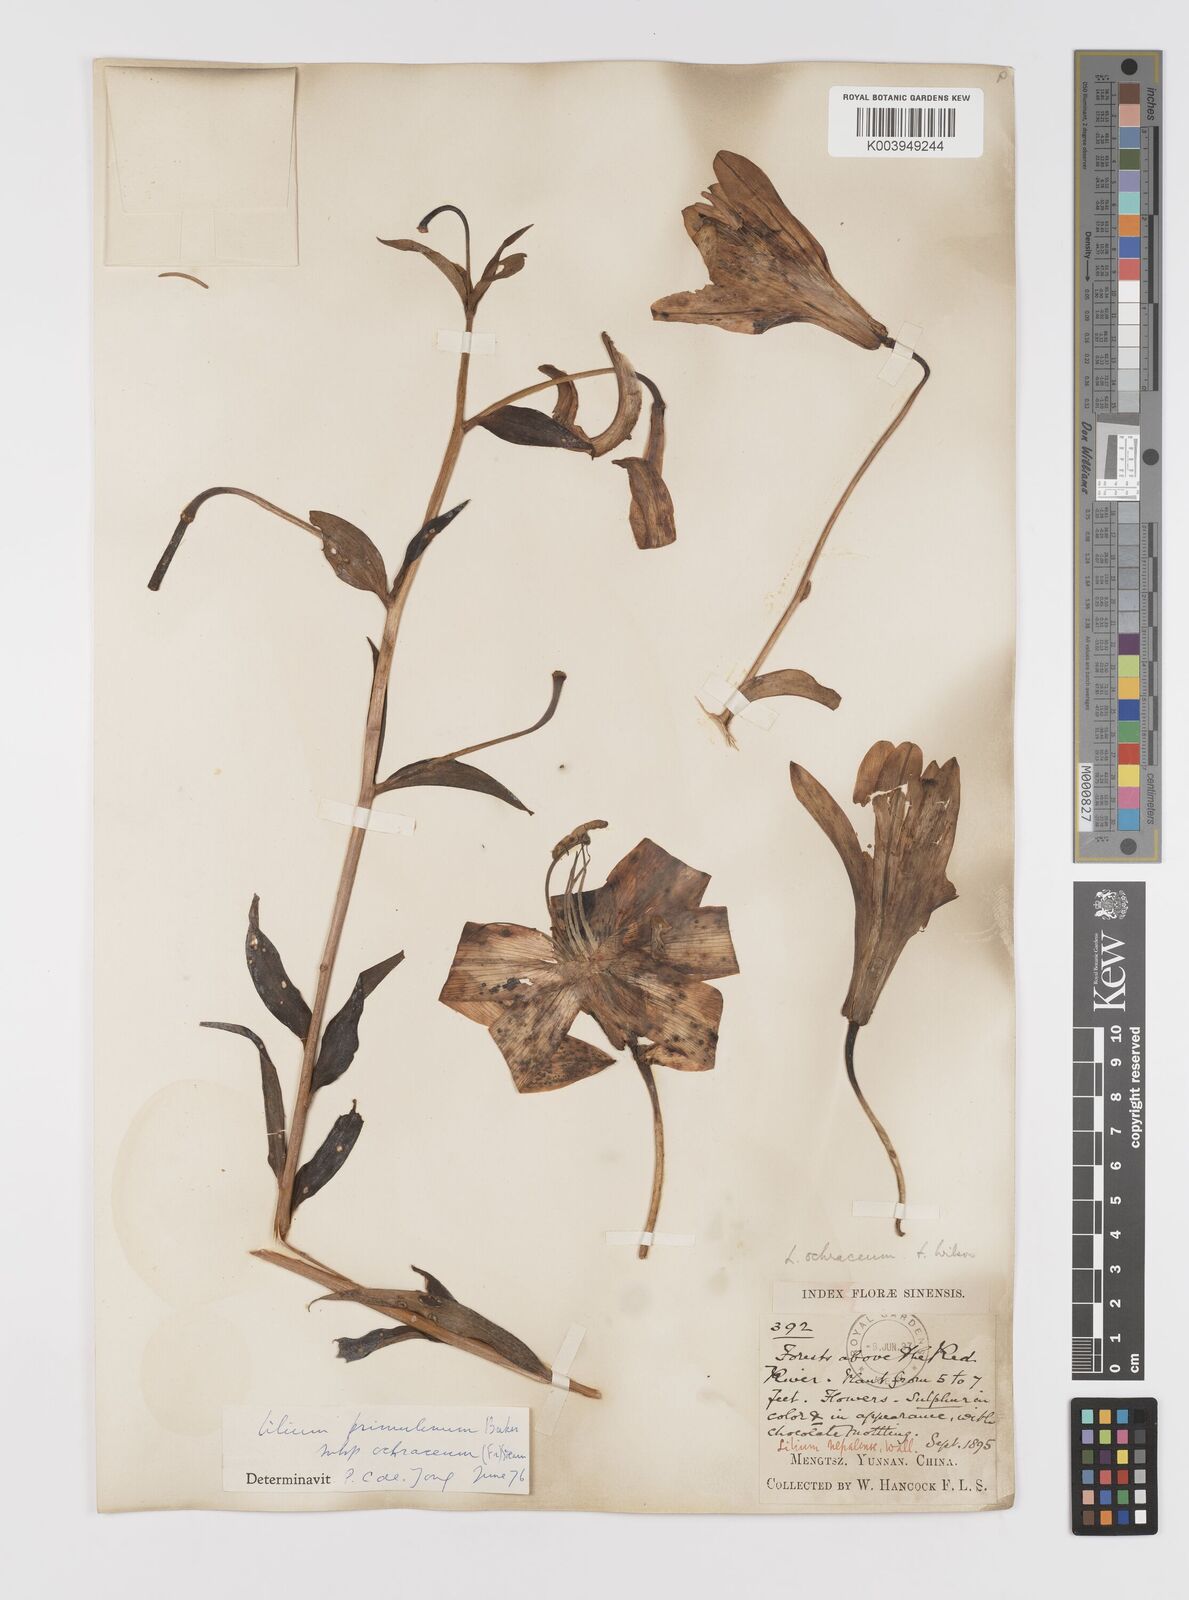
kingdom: Plantae
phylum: Tracheophyta
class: Liliopsida
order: Liliales
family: Liliaceae
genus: Lilium
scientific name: Lilium primulinum
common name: Ochre lily
